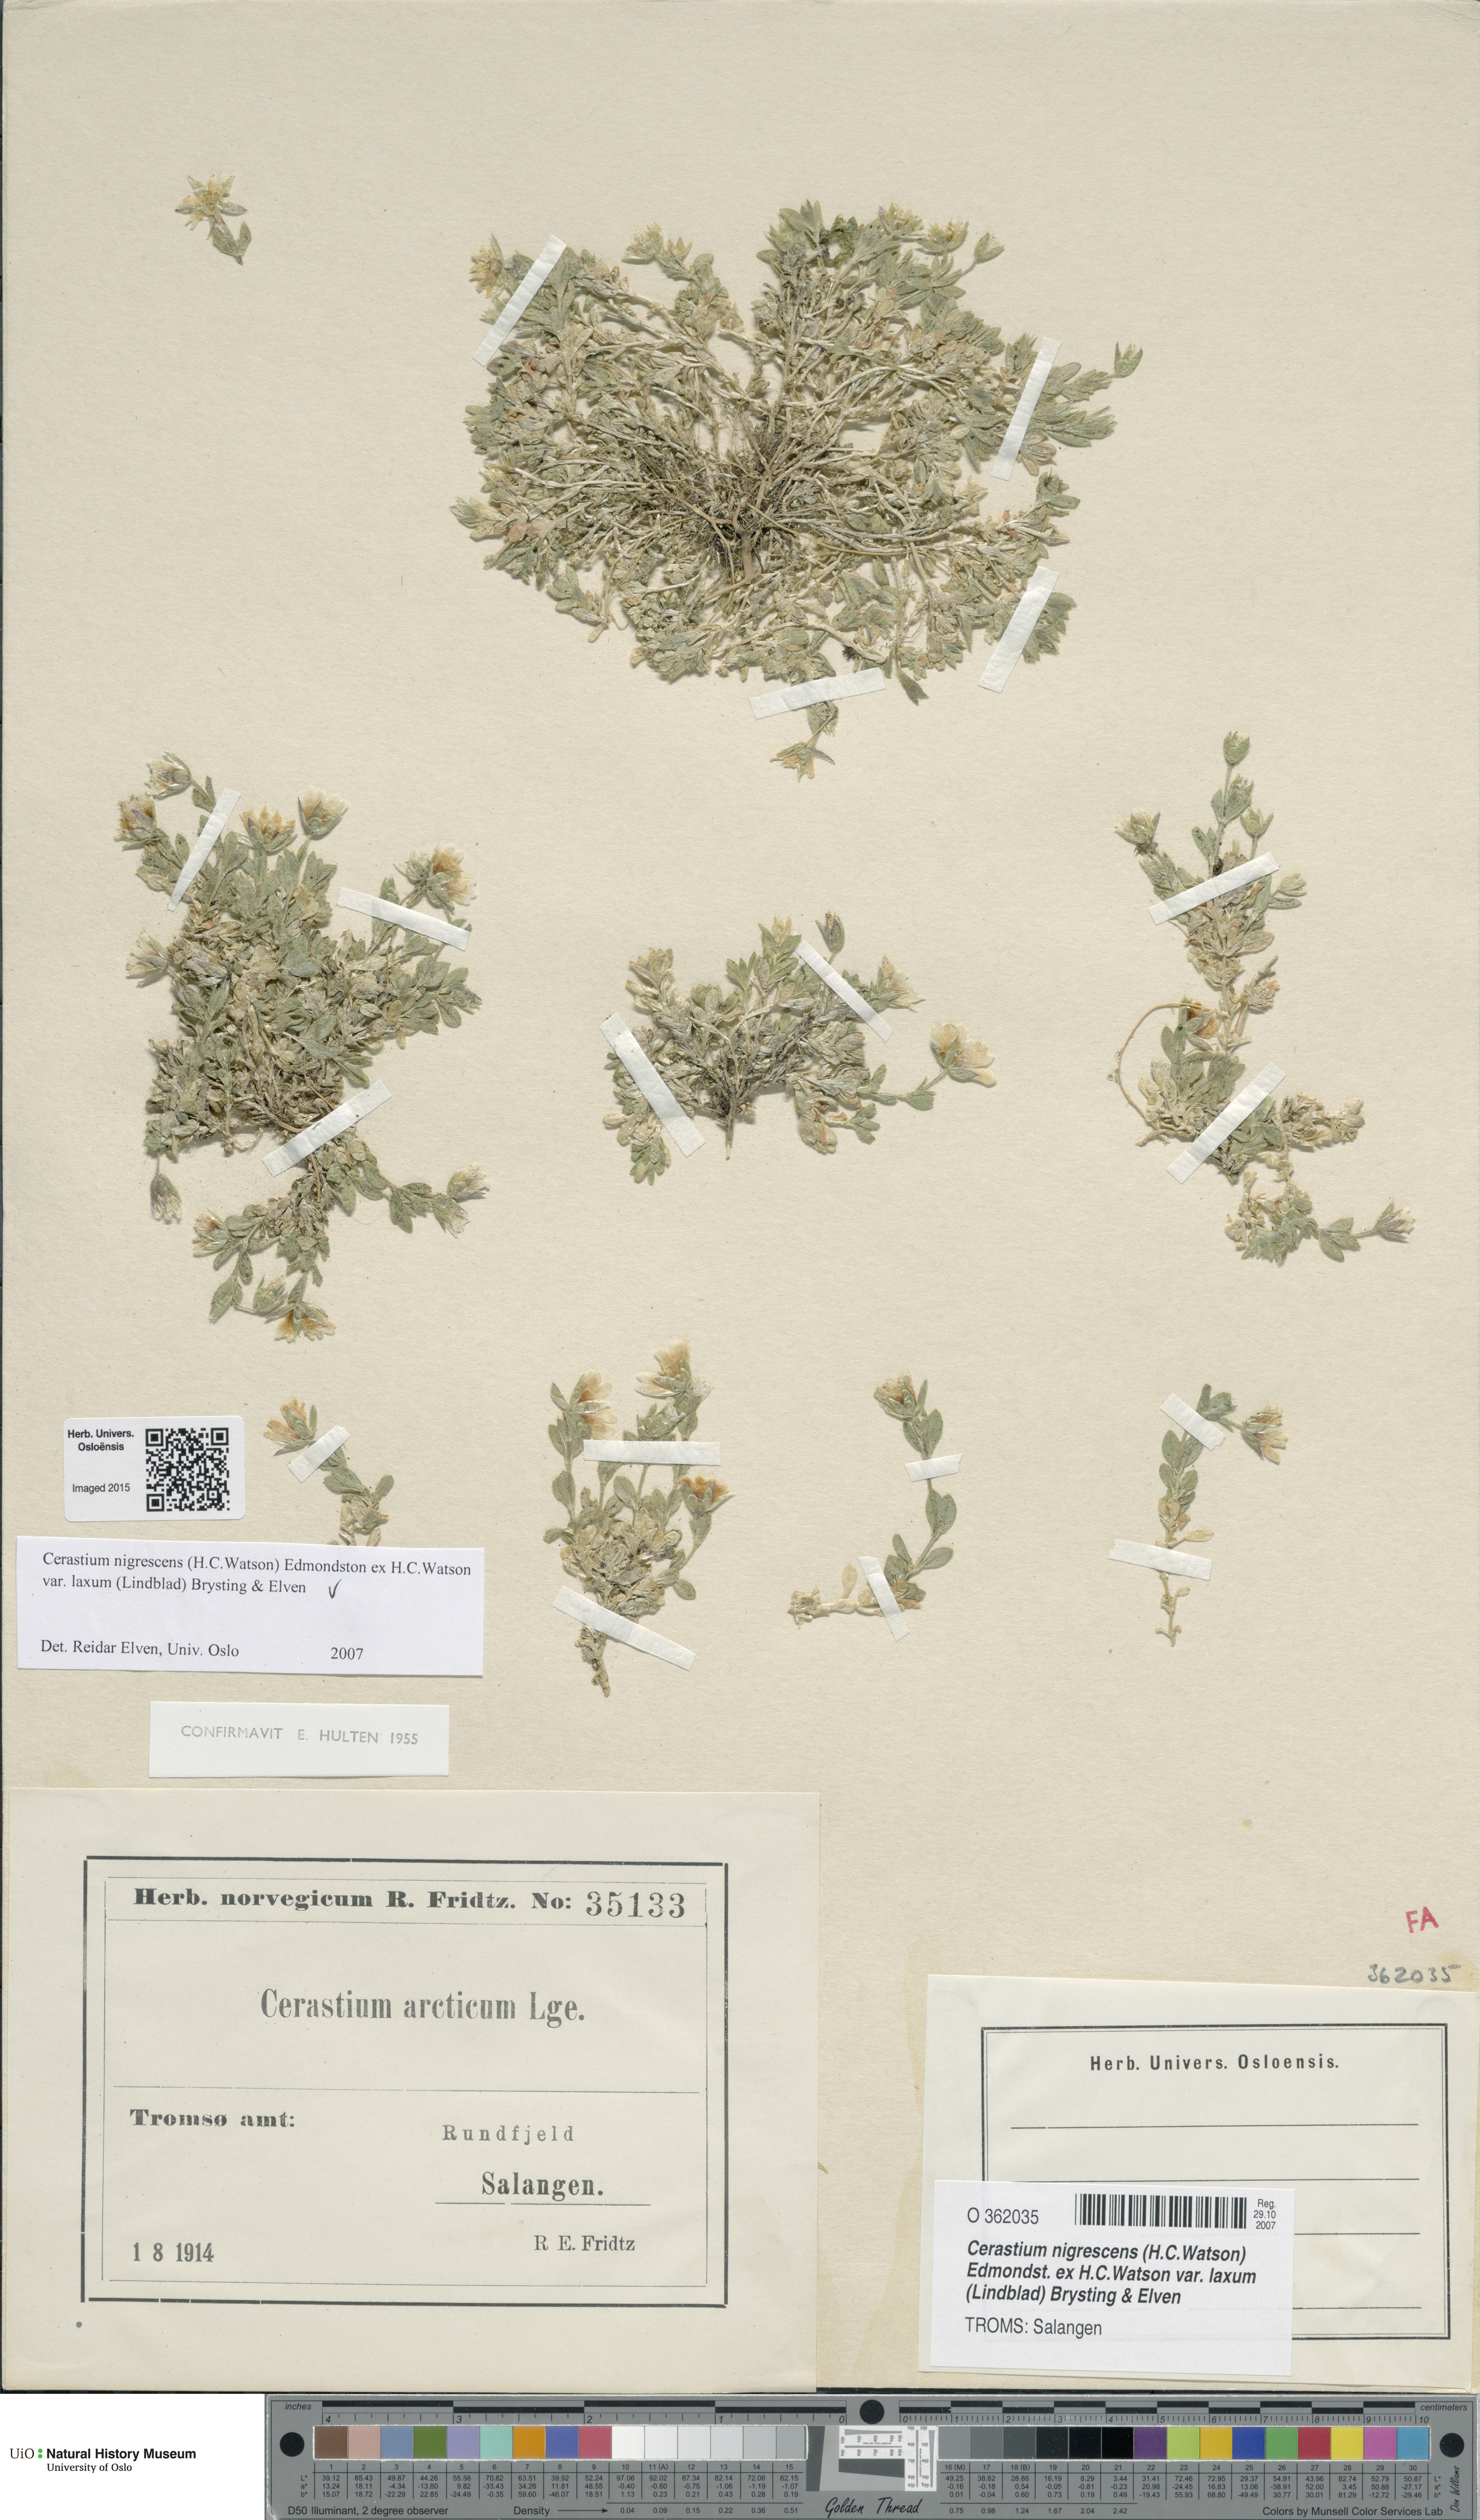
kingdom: Plantae
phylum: Tracheophyta
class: Magnoliopsida
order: Caryophyllales
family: Caryophyllaceae
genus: Cerastium
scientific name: Cerastium nigrescens
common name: Shetland mouse-ear
